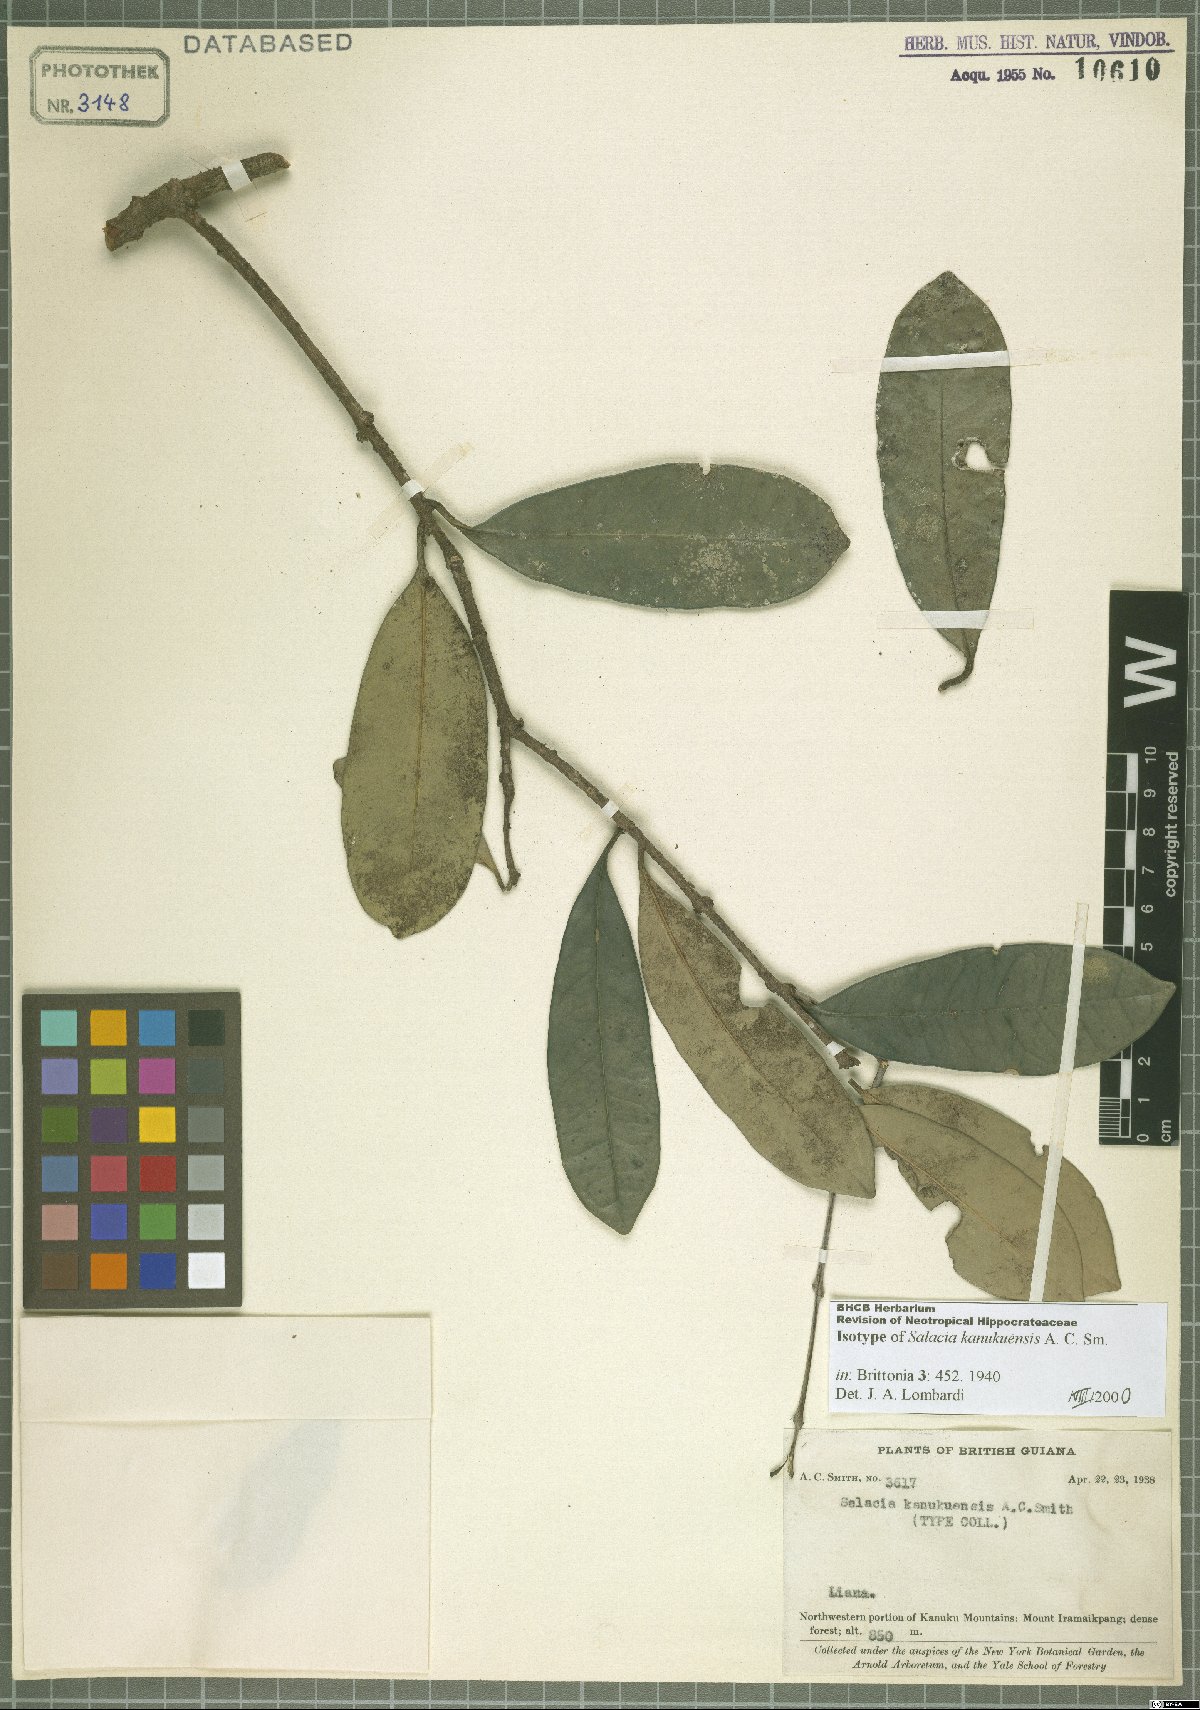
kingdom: Plantae
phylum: Tracheophyta
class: Magnoliopsida
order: Celastrales
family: Celastraceae
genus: Salacia
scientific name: Salacia kanukuensis
